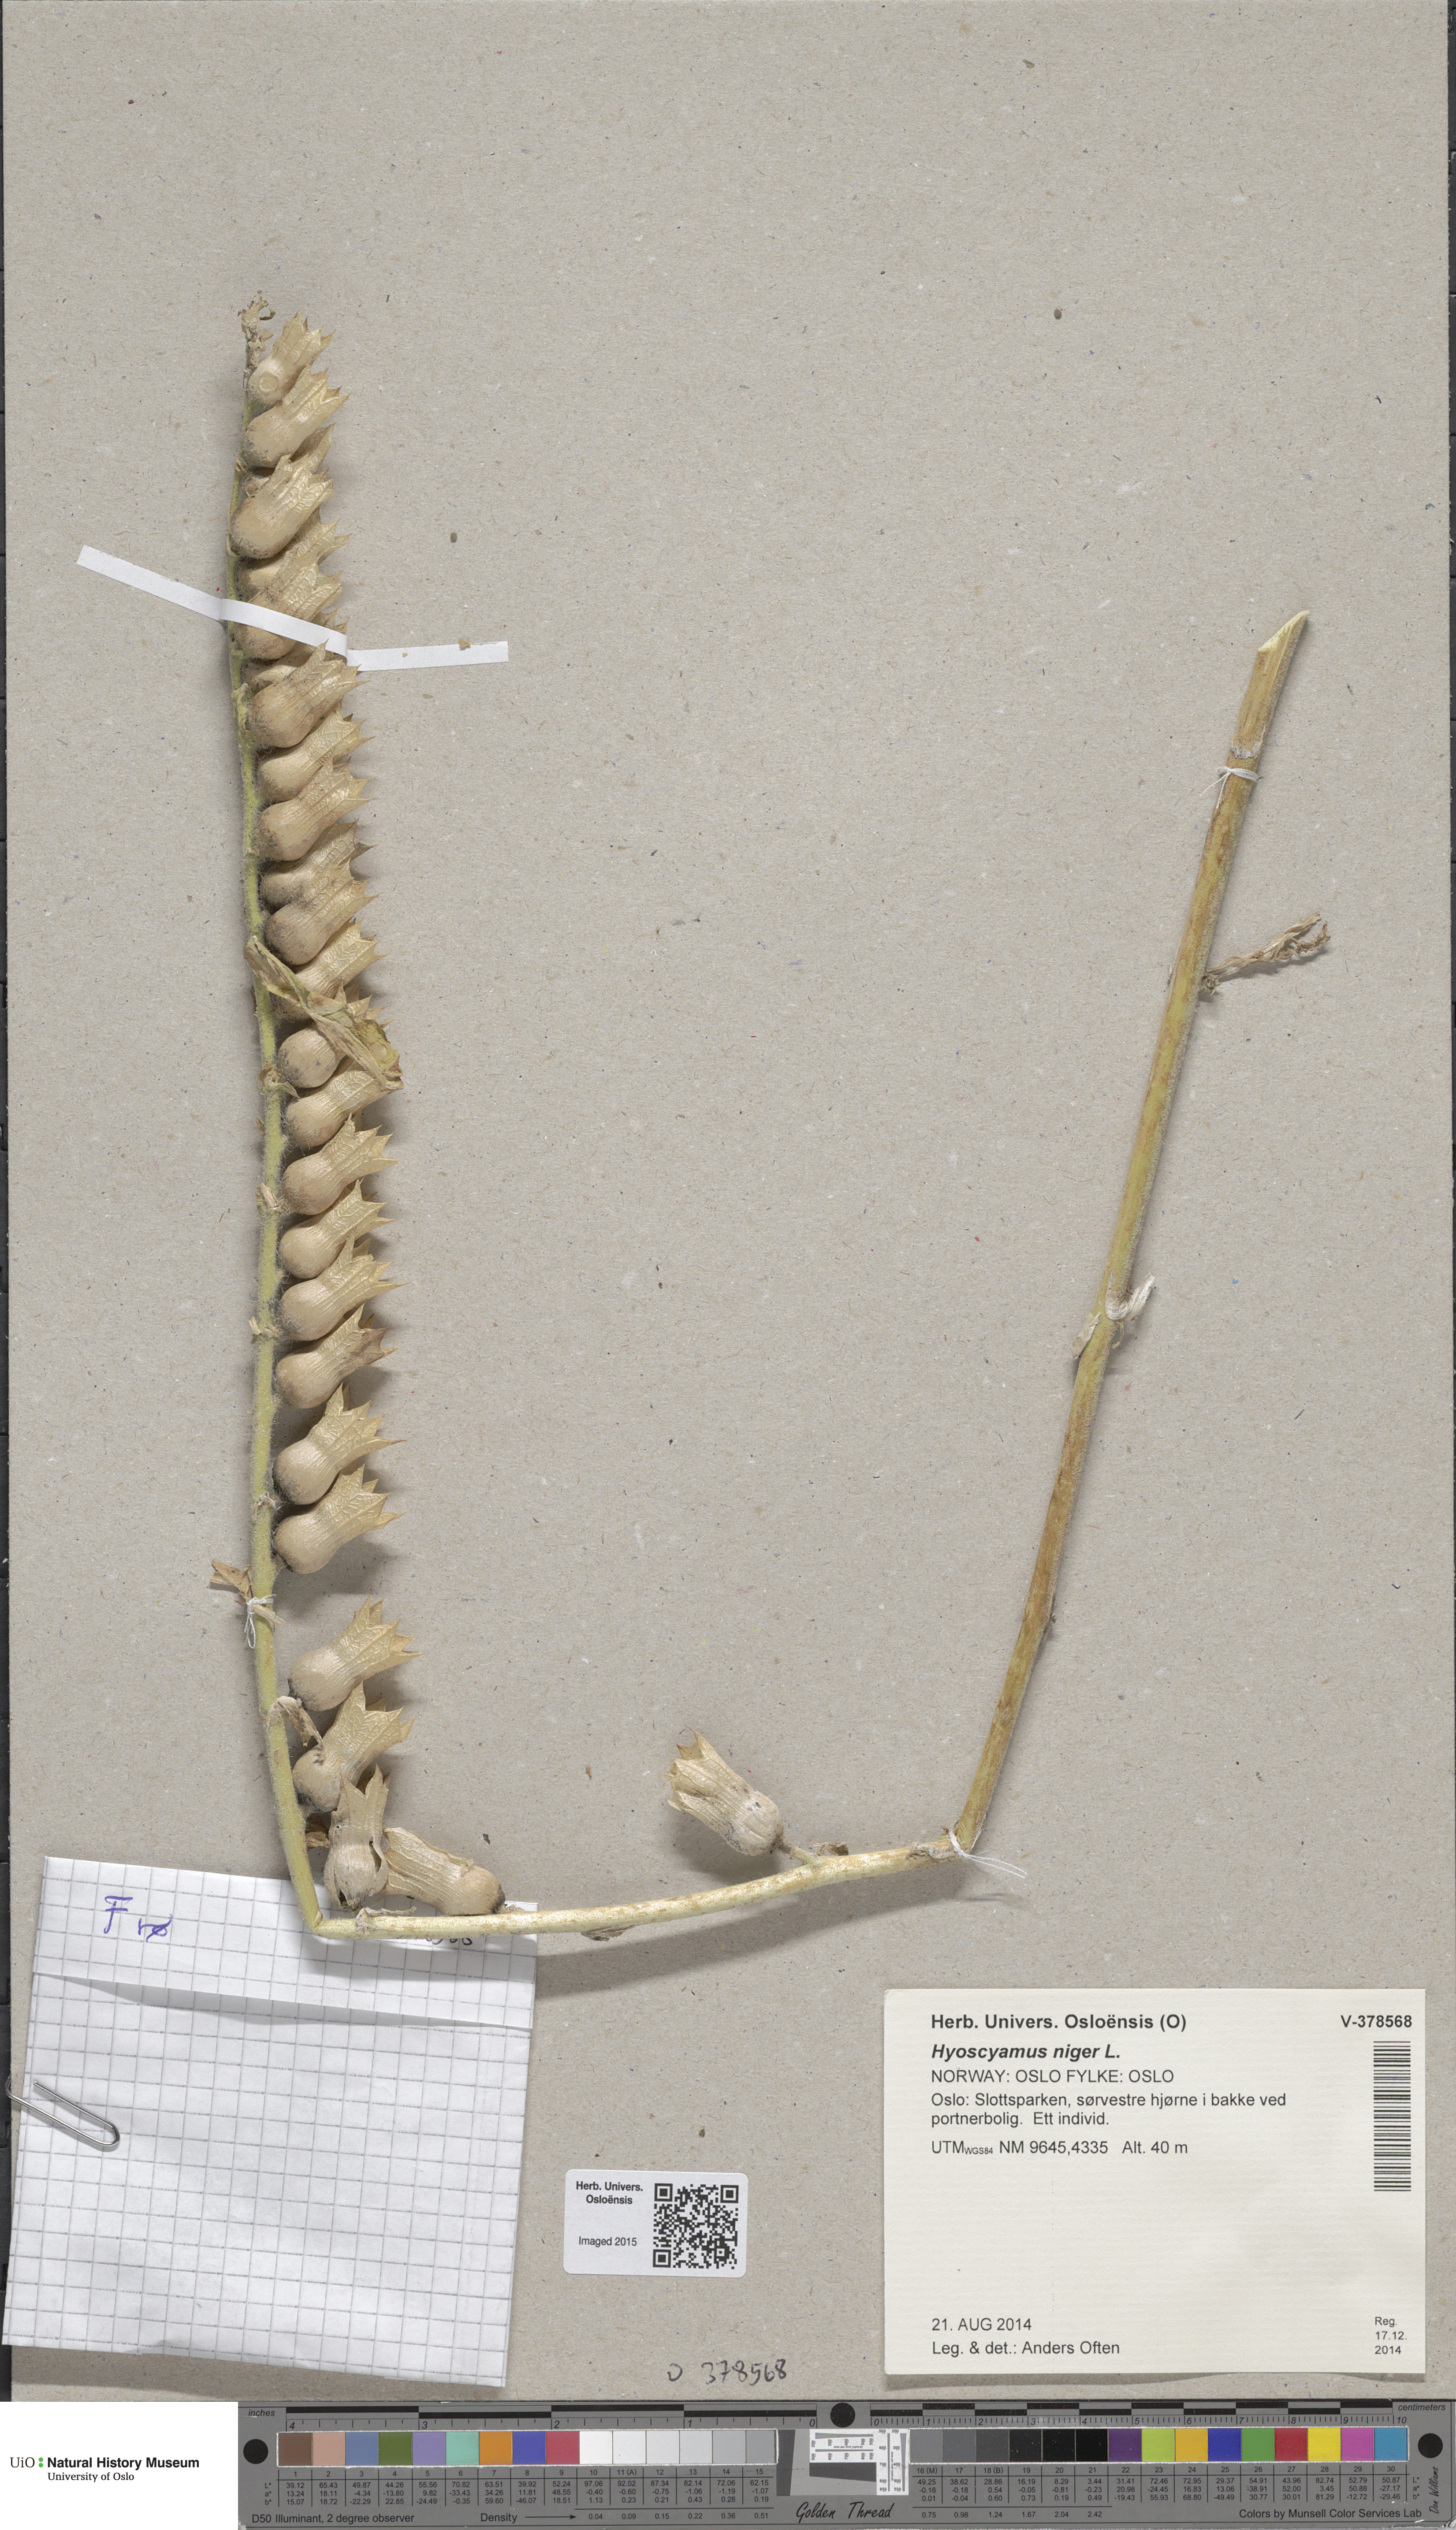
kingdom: Plantae
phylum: Tracheophyta
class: Magnoliopsida
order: Solanales
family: Solanaceae
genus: Hyoscyamus
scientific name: Hyoscyamus niger
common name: Henbane
